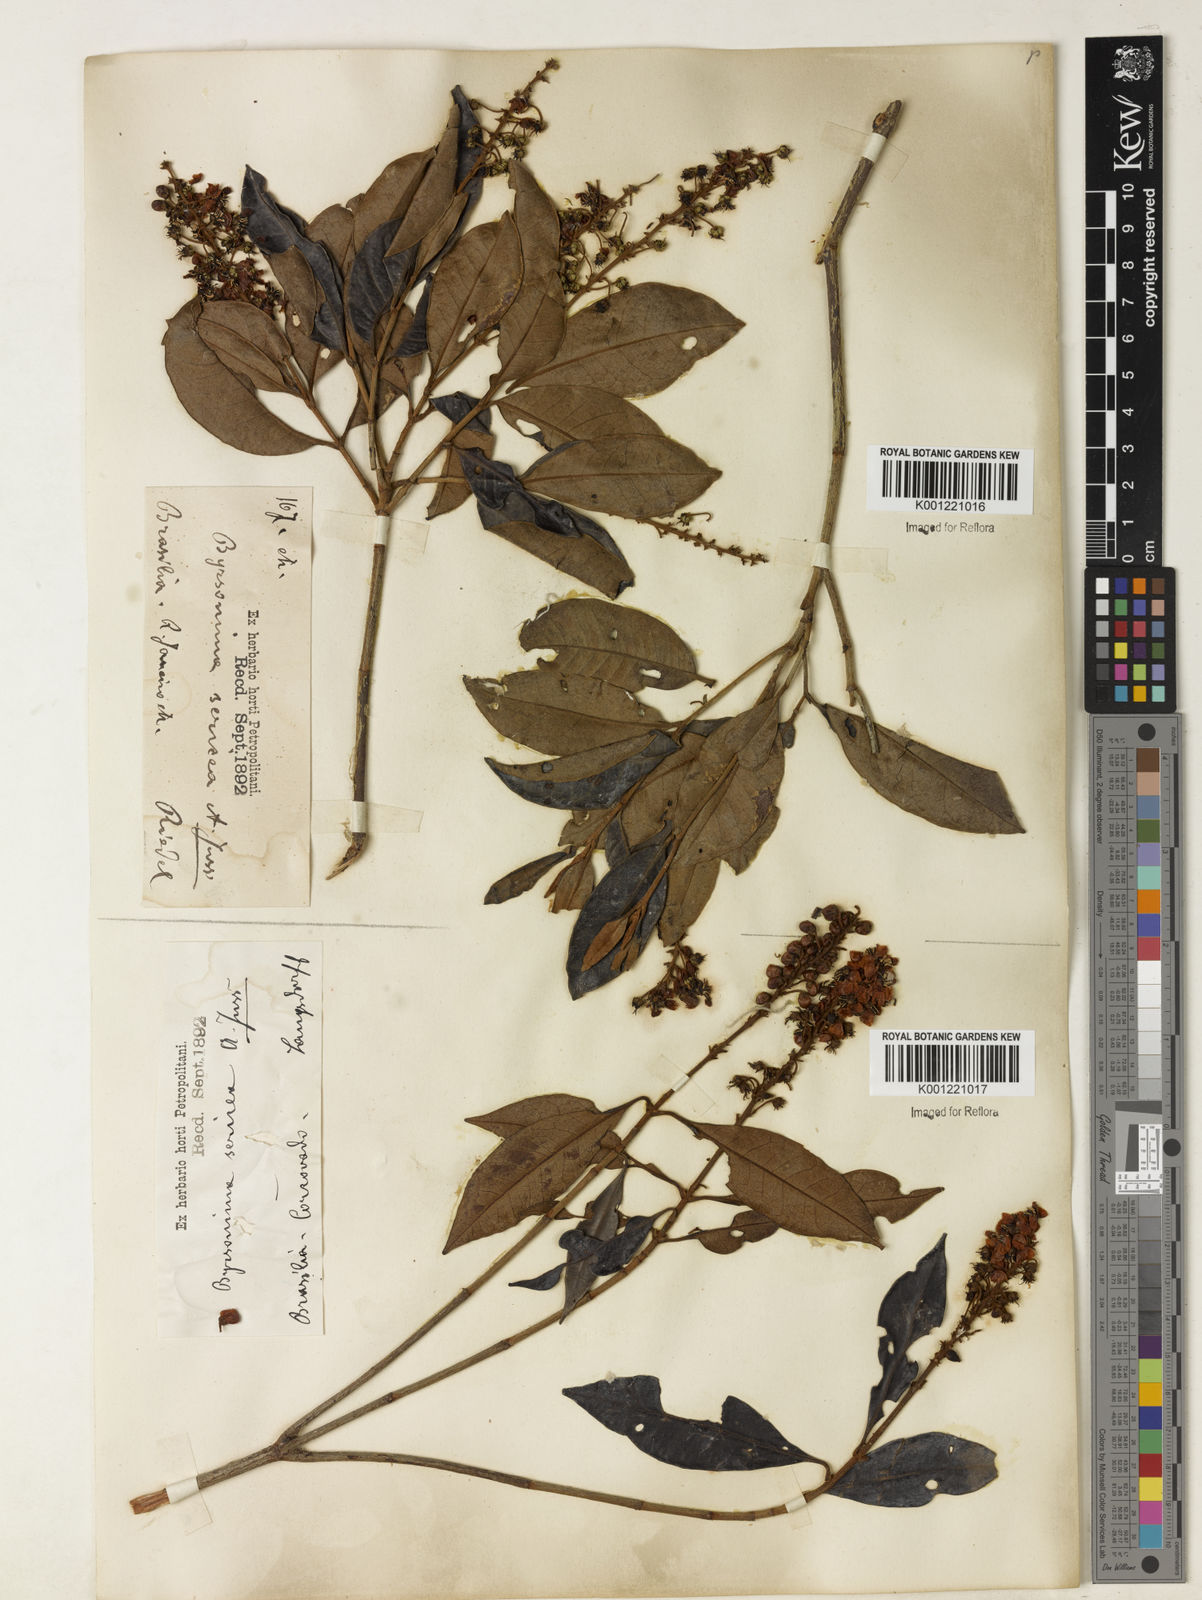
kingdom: Plantae
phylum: Tracheophyta
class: Magnoliopsida
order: Malpighiales
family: Malpighiaceae
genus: Byrsonima
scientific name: Byrsonima sericea
